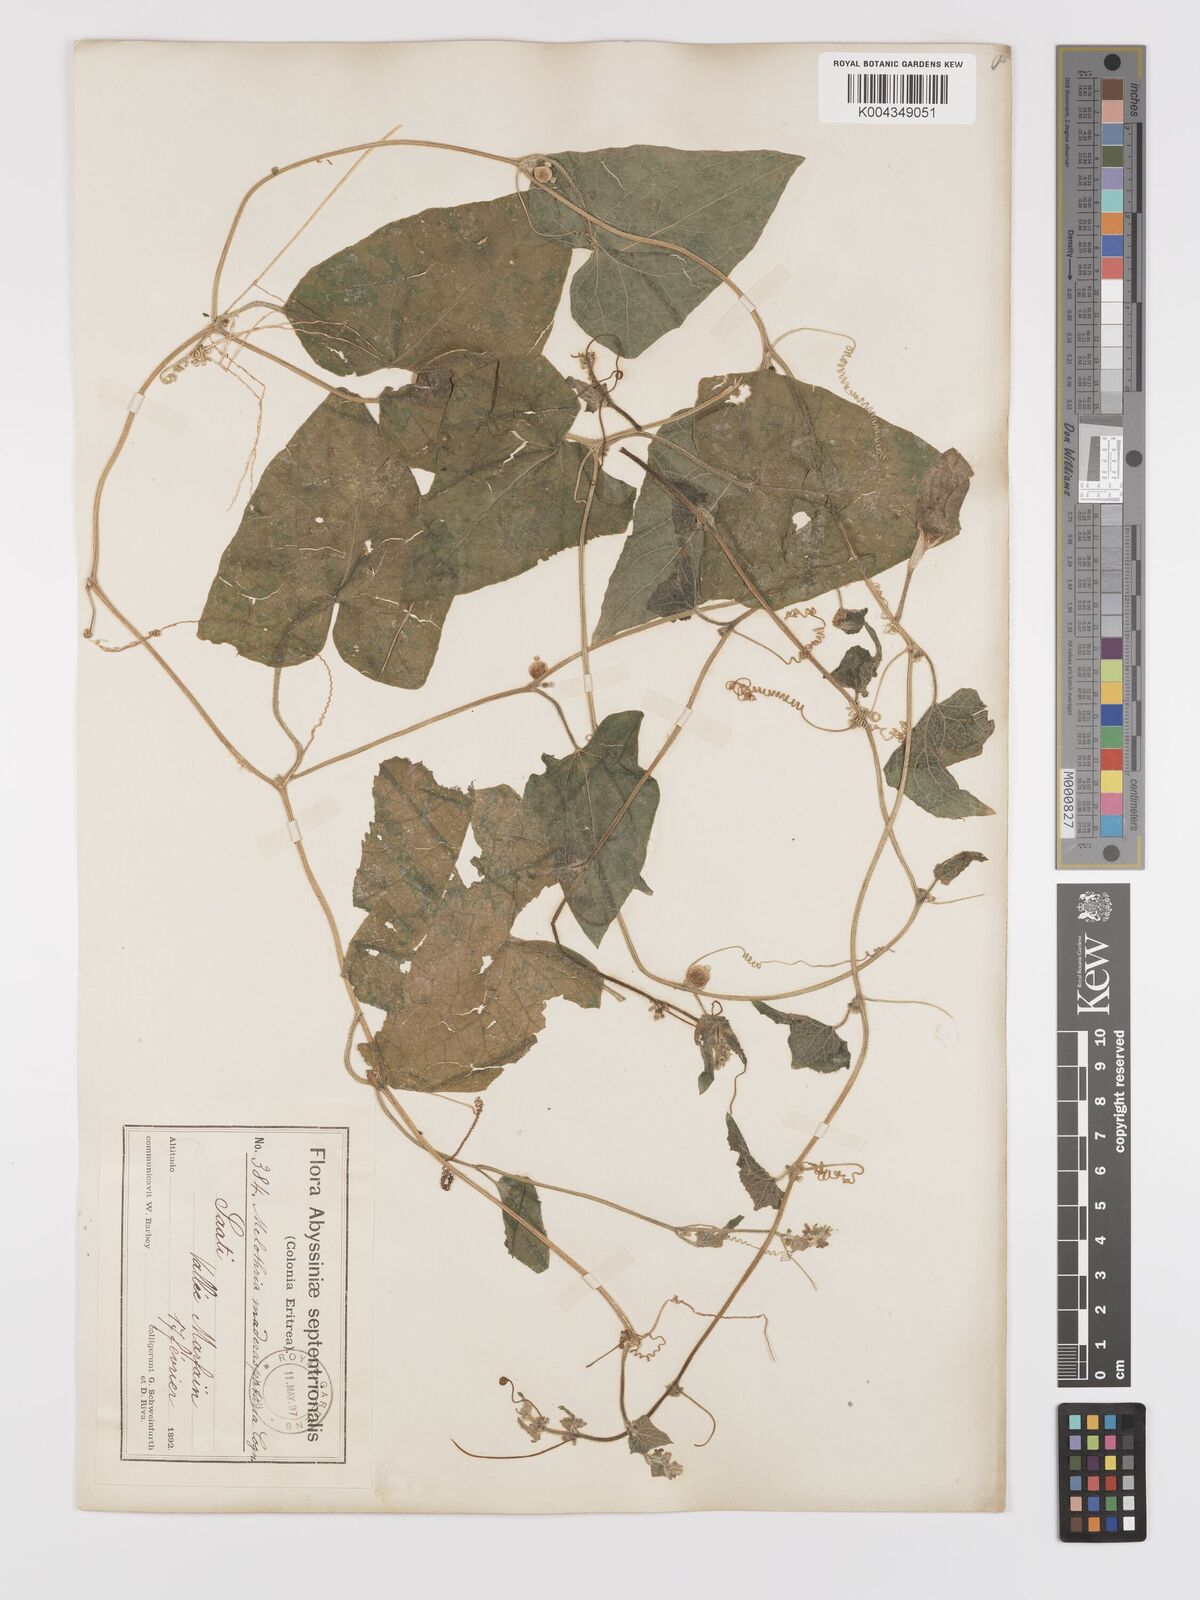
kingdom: Plantae
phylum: Tracheophyta
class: Magnoliopsida
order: Cucurbitales
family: Cucurbitaceae
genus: Cucumis
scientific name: Cucumis maderaspatanus
